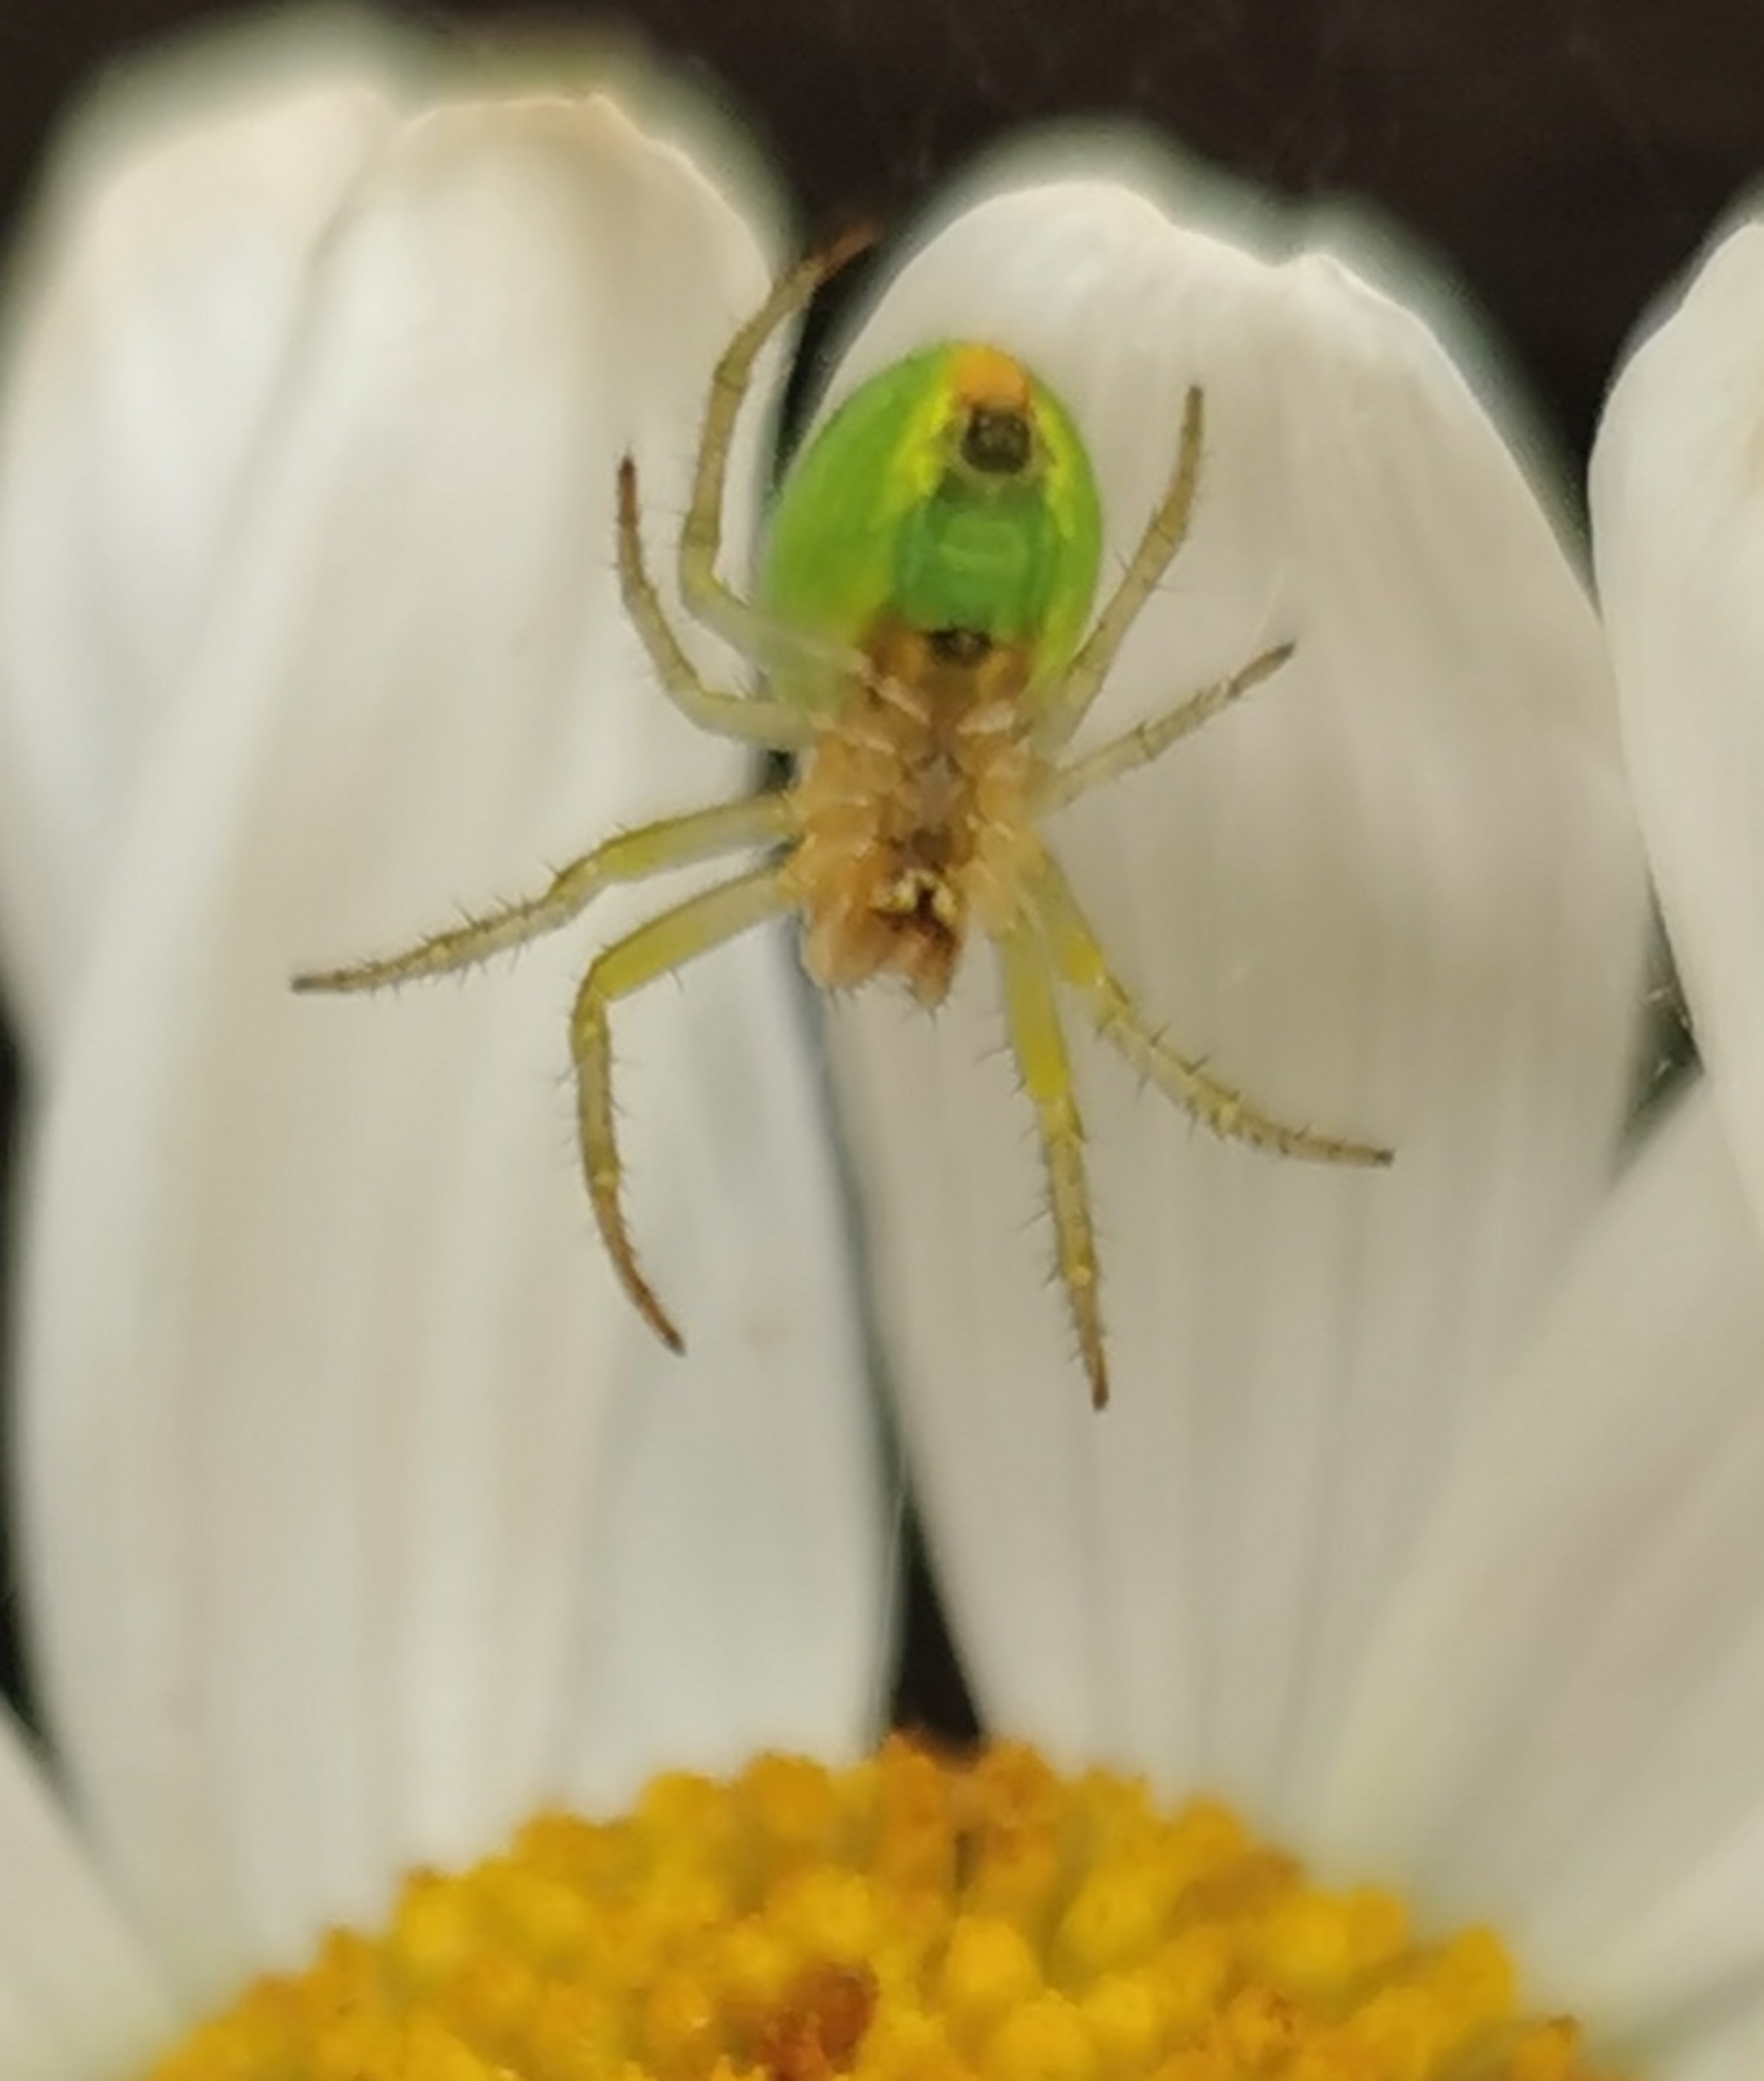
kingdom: Animalia
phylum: Arthropoda
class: Arachnida
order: Araneae
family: Araneidae
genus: Araniella
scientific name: Araniella
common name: Agurkeedderkopslægten
